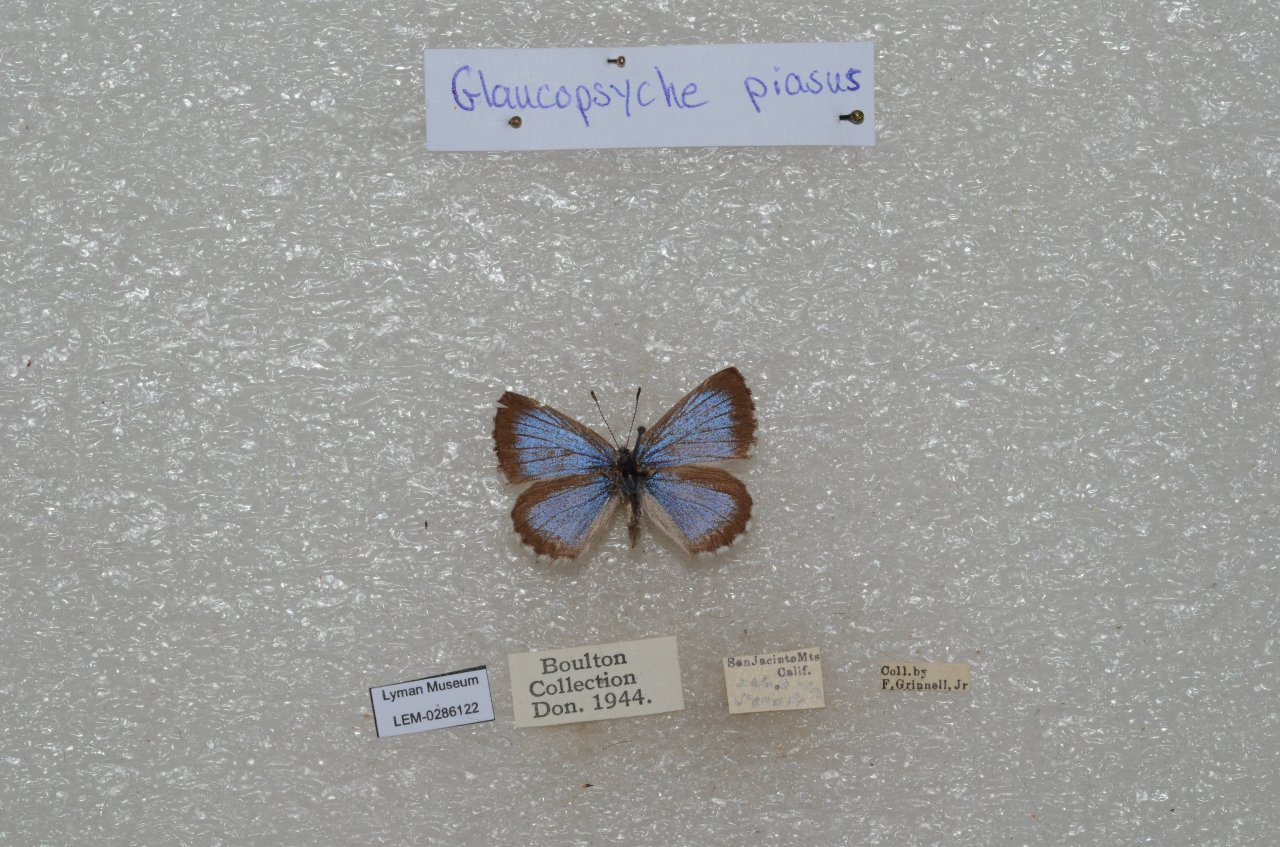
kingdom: Animalia
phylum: Arthropoda
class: Insecta
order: Lepidoptera
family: Lycaenidae
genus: Glaucopsyche
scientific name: Glaucopsyche piasus
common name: Arrowhead Blue
